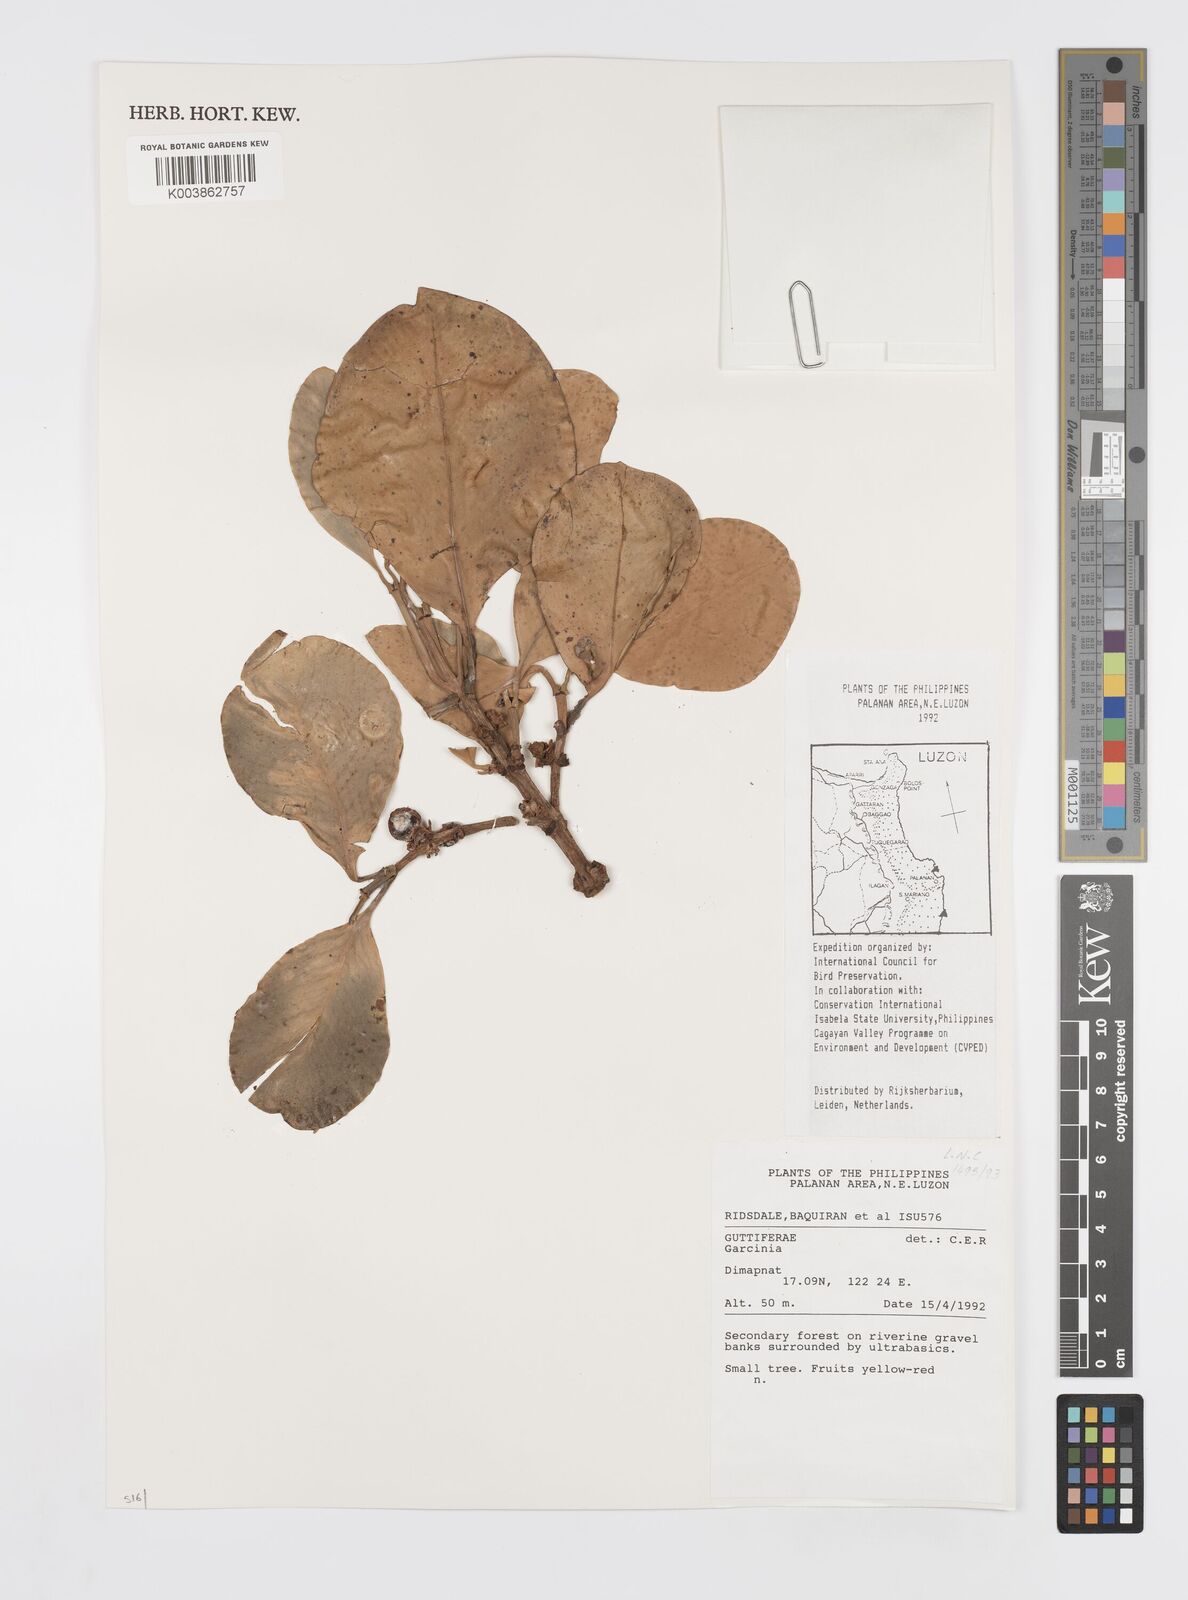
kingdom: Plantae
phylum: Tracheophyta
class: Magnoliopsida
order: Malpighiales
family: Clusiaceae
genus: Garcinia
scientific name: Garcinia
